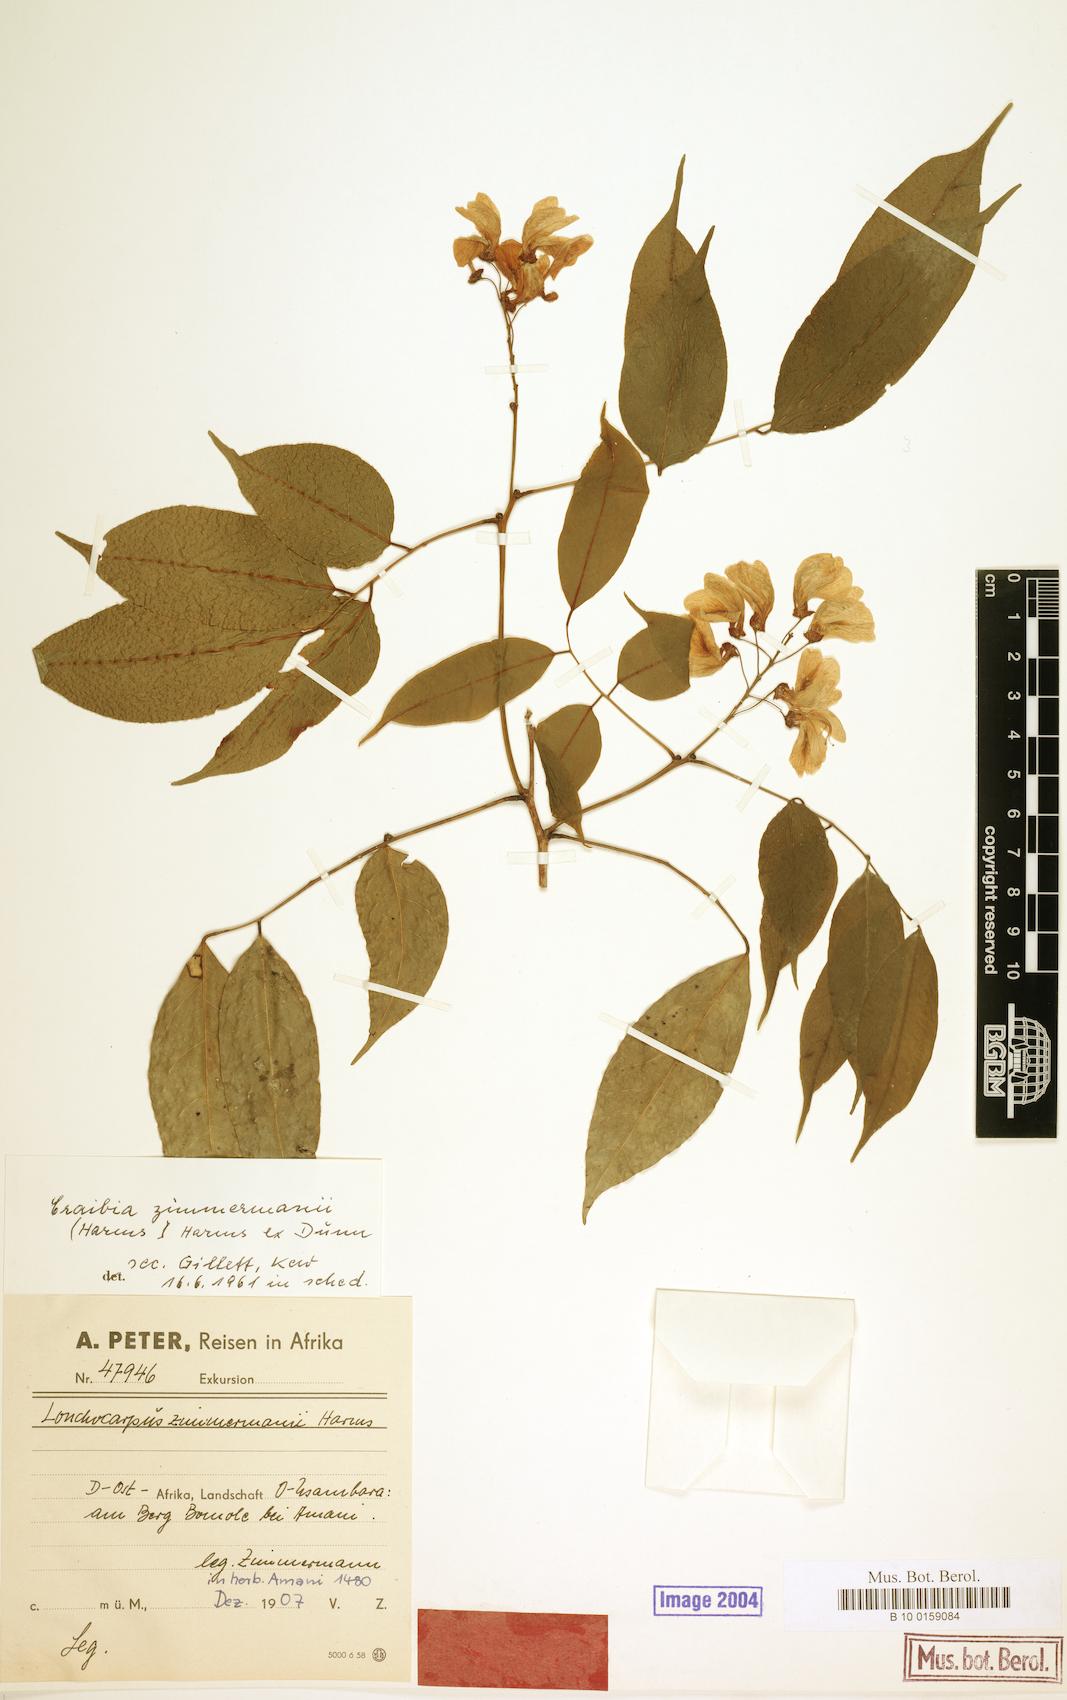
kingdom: Plantae
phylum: Tracheophyta
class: Magnoliopsida
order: Fabales
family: Fabaceae
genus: Craibia
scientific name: Craibia zimmermannii
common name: Sandforest pea-wood
